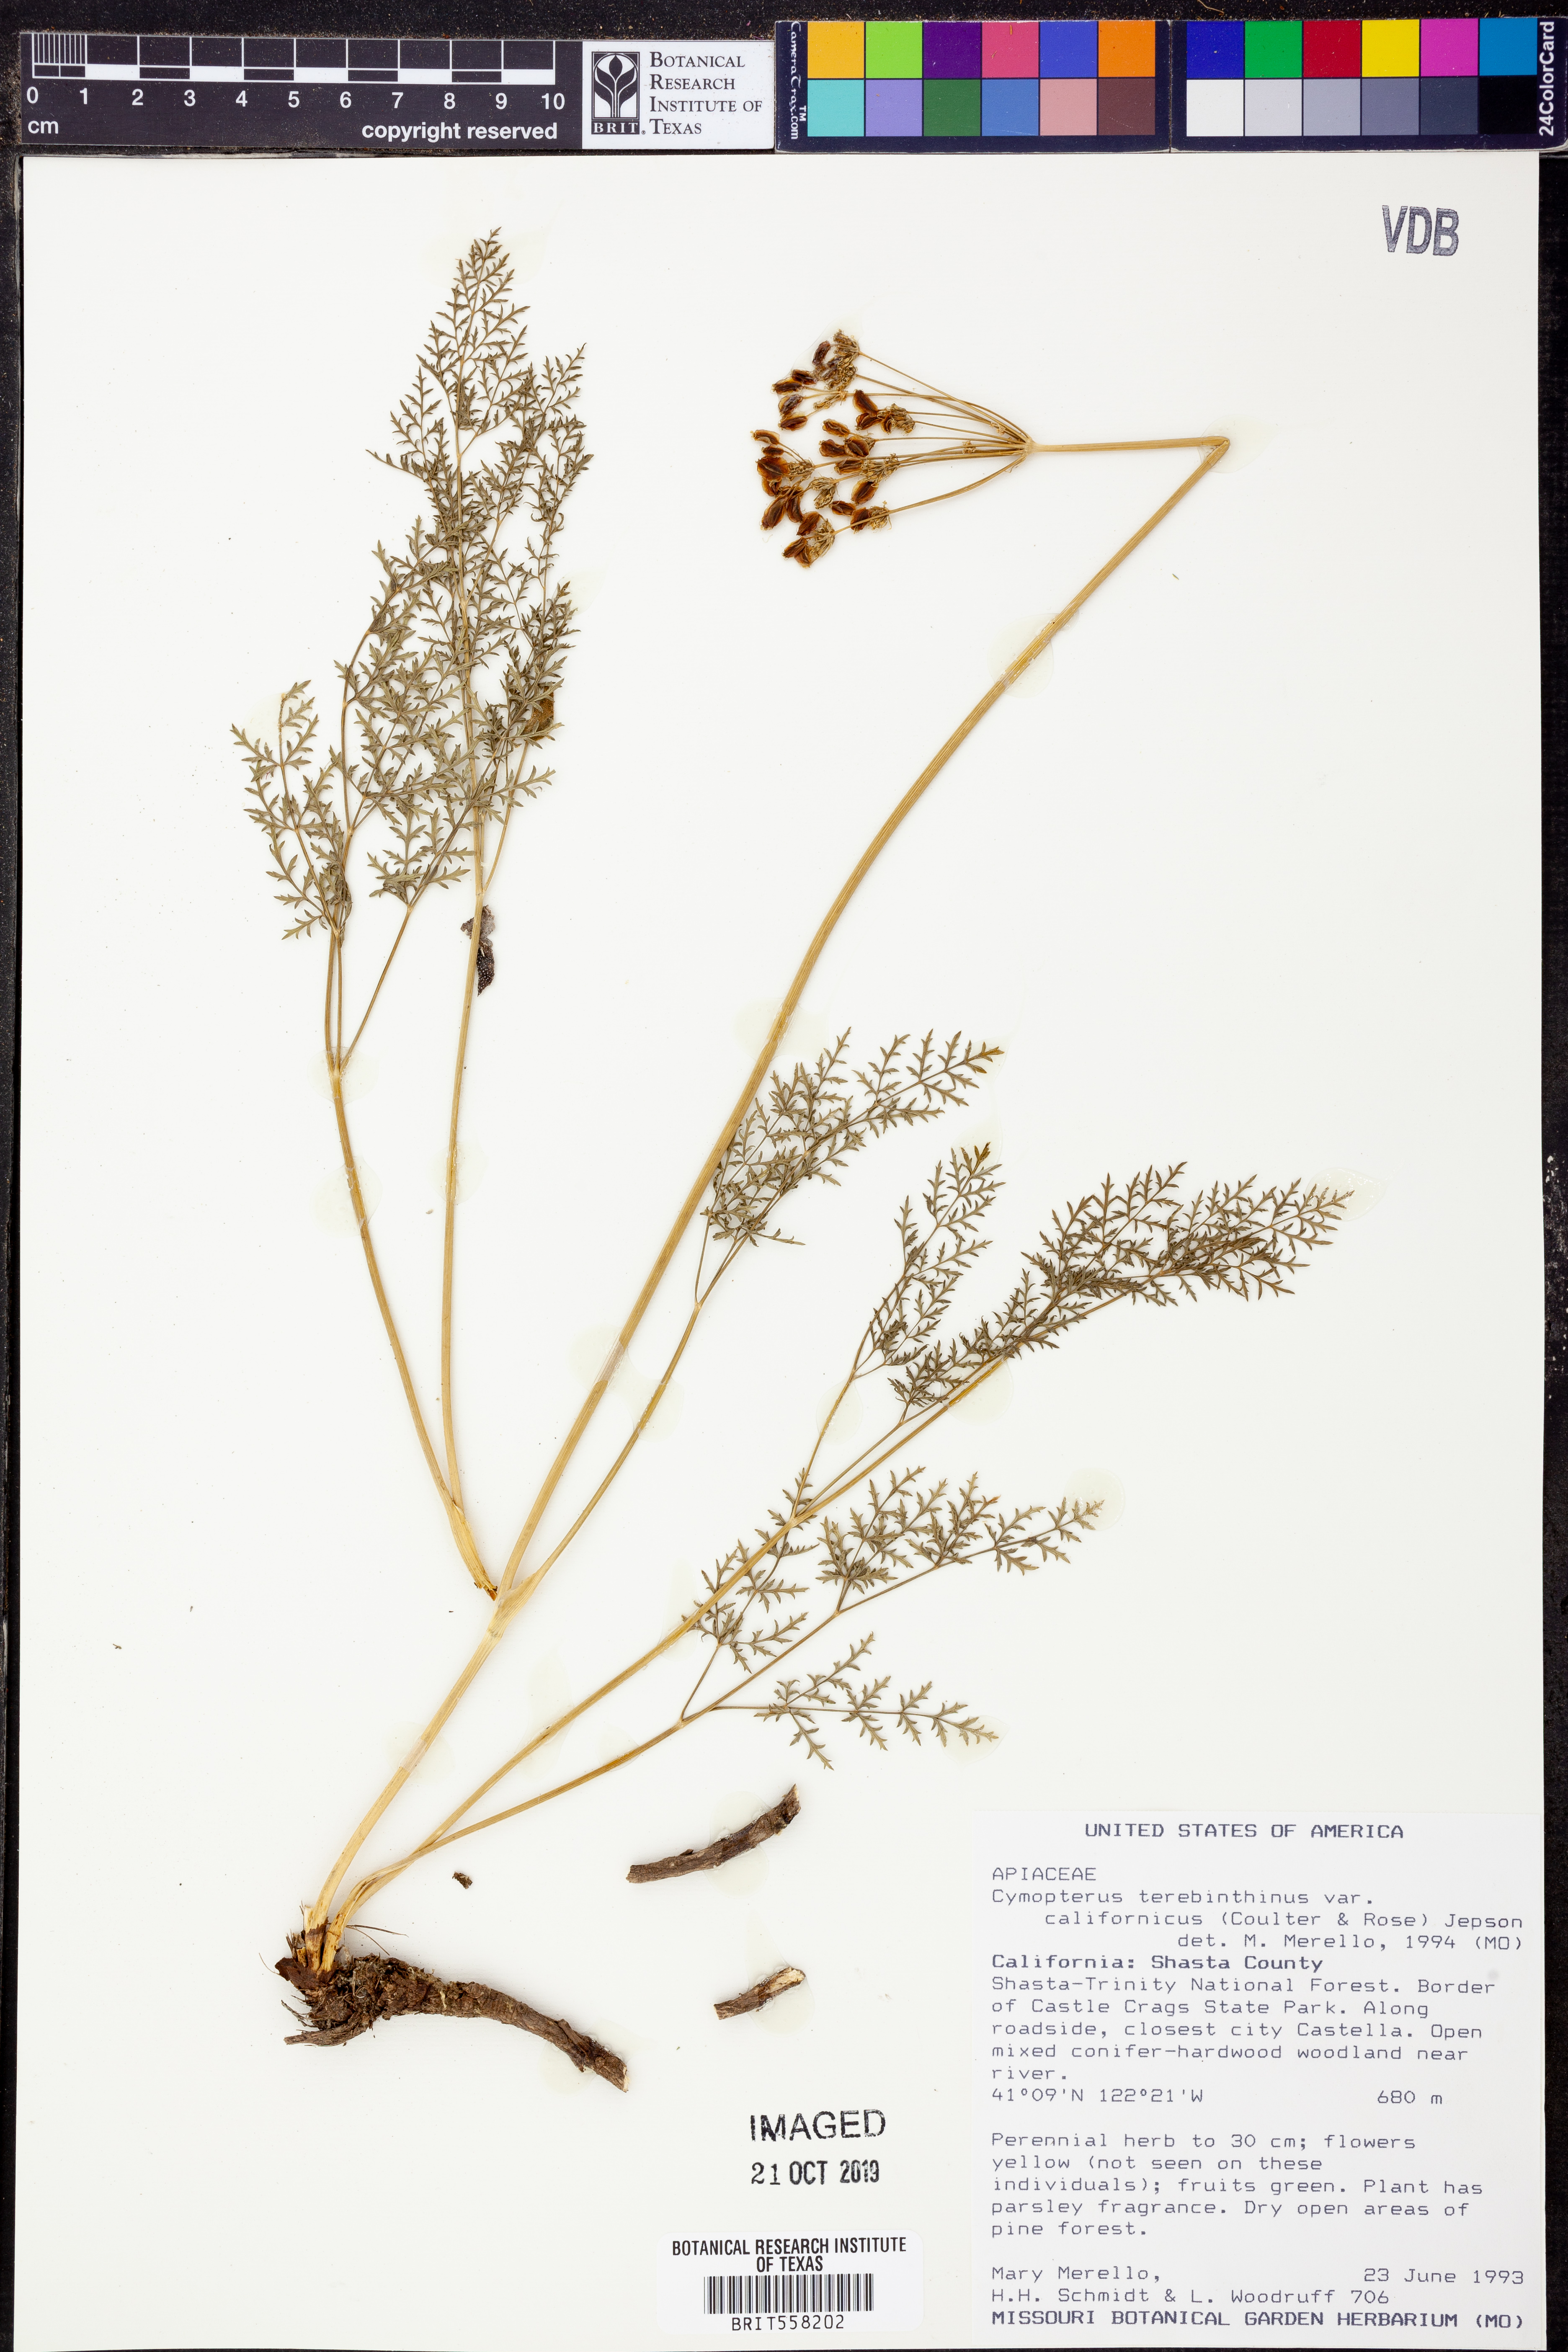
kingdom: Plantae
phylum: Tracheophyta
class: Magnoliopsida
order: Apiales
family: Apiaceae
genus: Pteryxia
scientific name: Pteryxia terebinthina
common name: Turpentine wavewing
